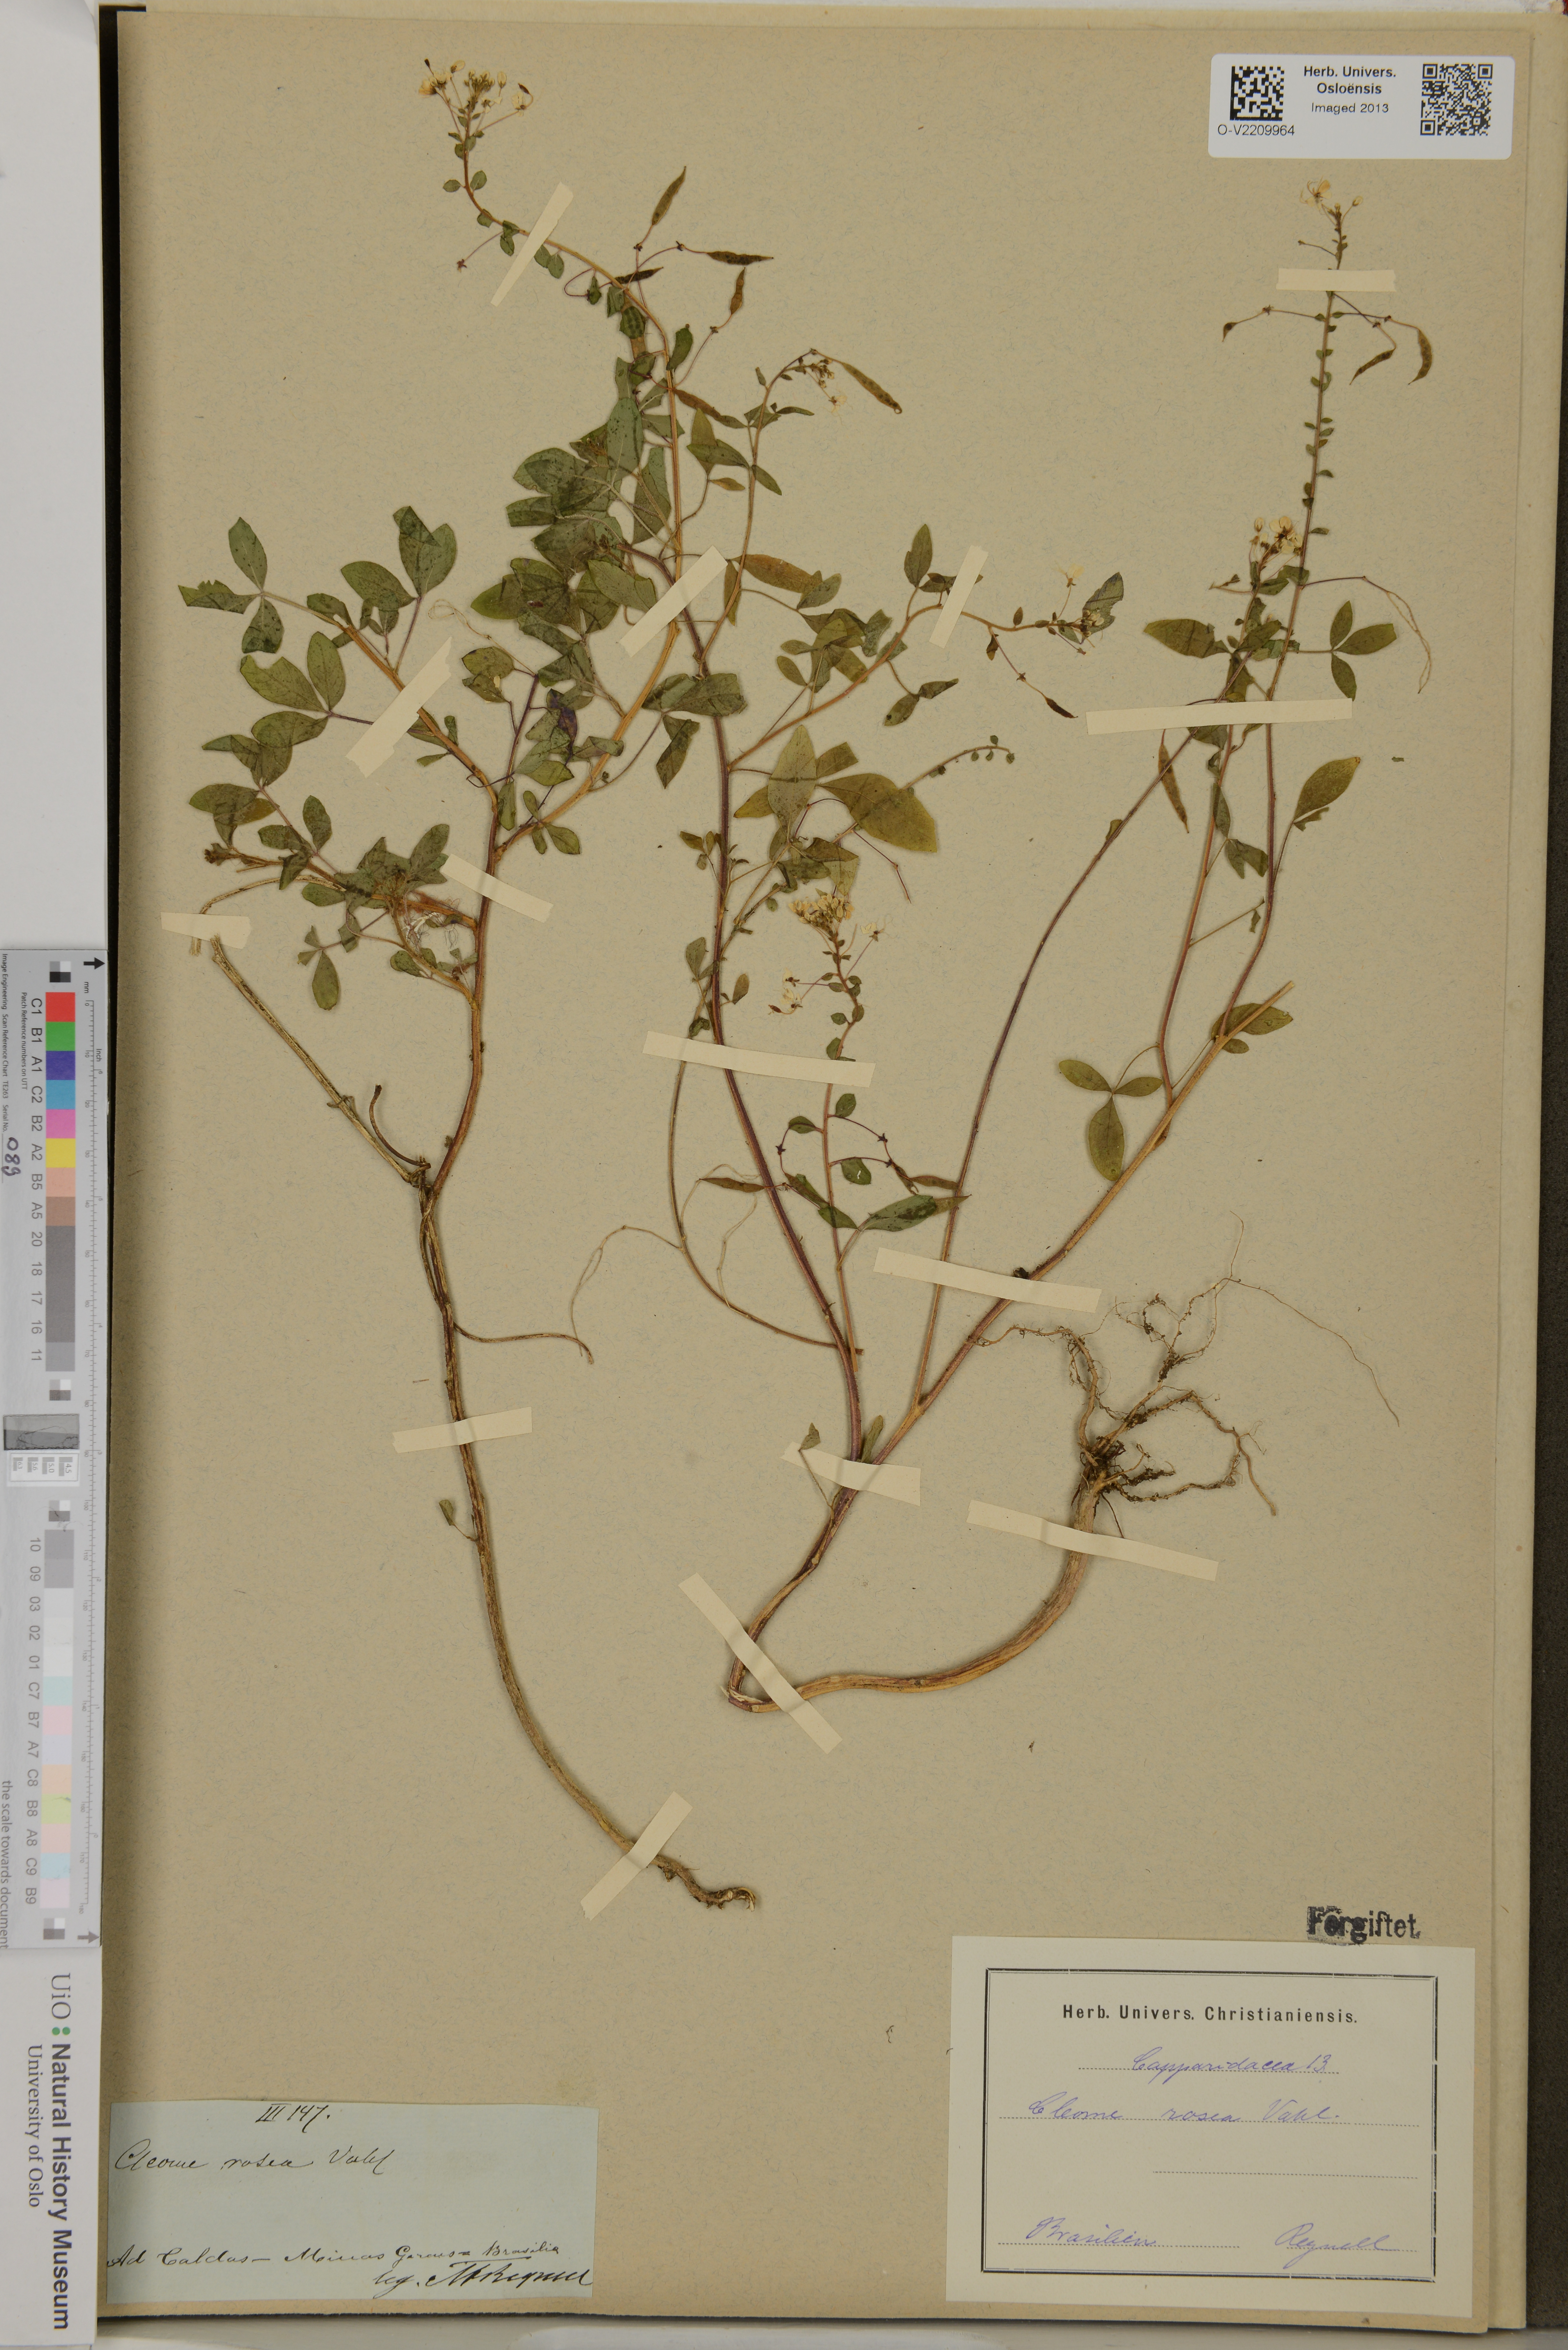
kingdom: Plantae
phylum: Tracheophyta
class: Magnoliopsida
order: Brassicales
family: Cleomaceae
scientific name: Cleomaceae
